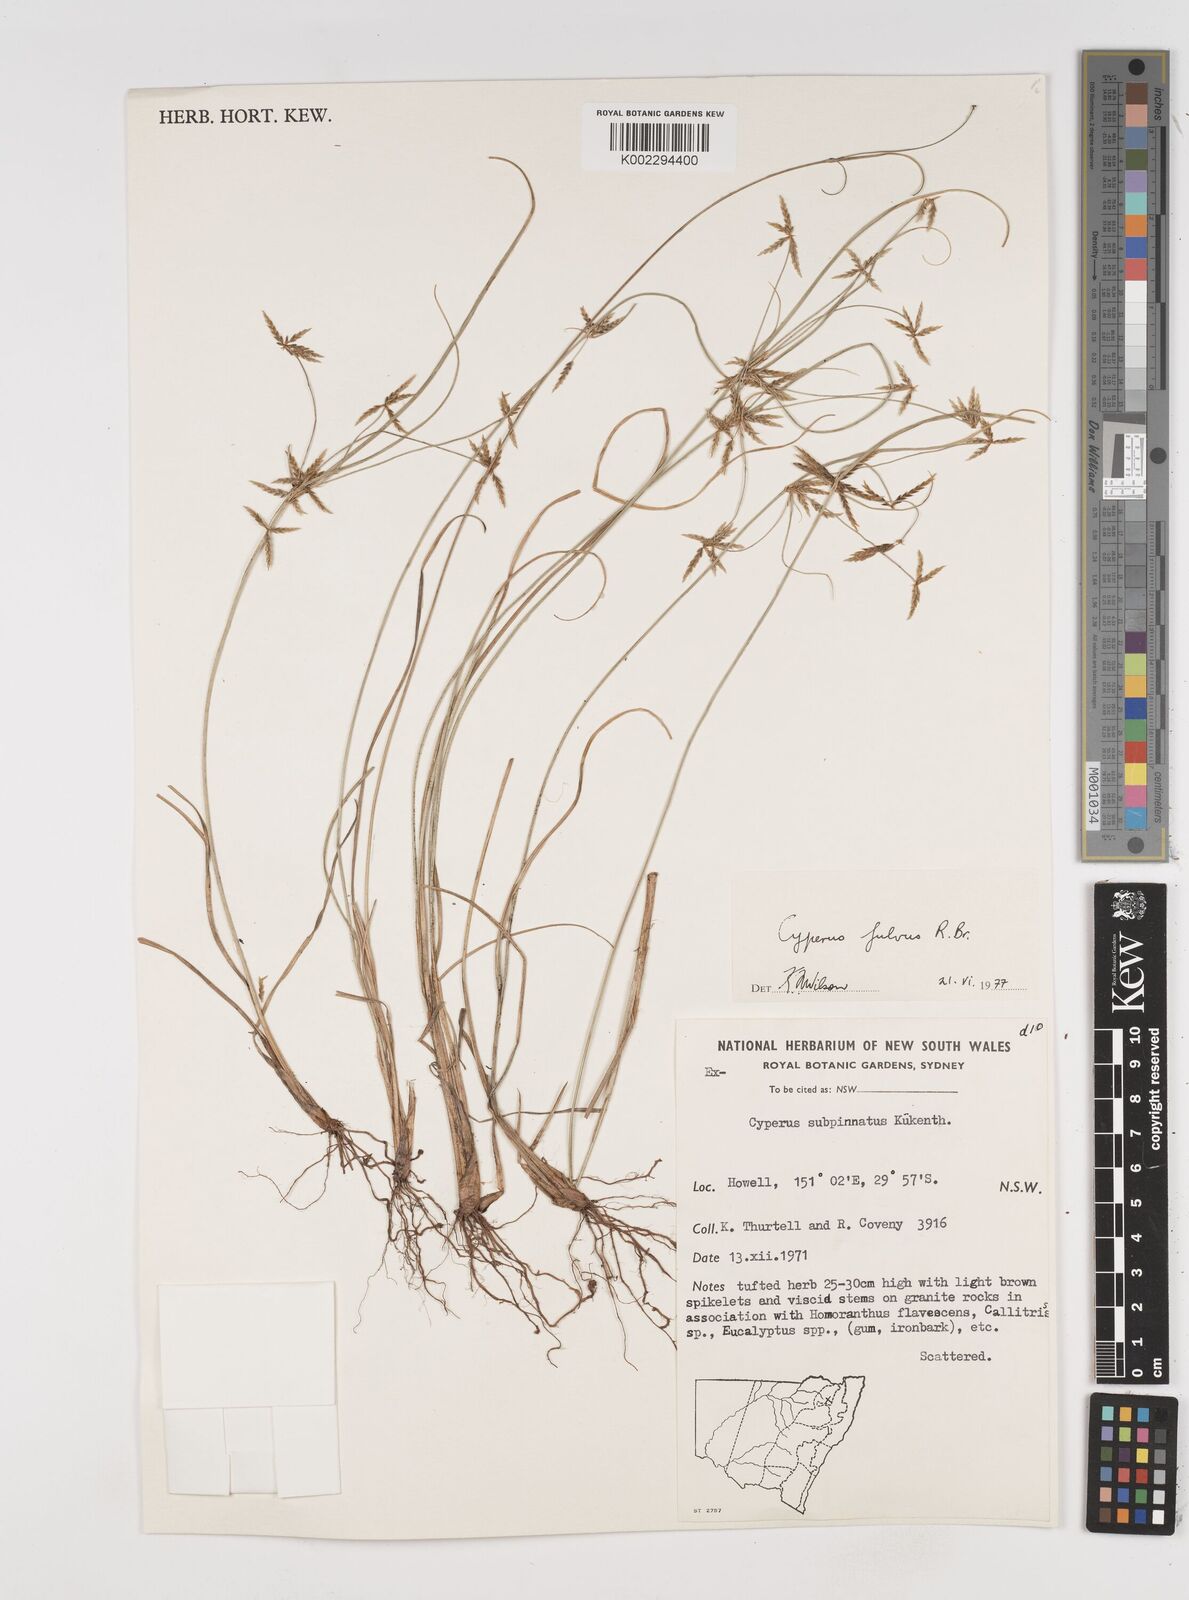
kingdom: Plantae
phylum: Tracheophyta
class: Liliopsida
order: Poales
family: Cyperaceae
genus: Cyperus
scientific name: Cyperus fulvus
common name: Sticky sedge
